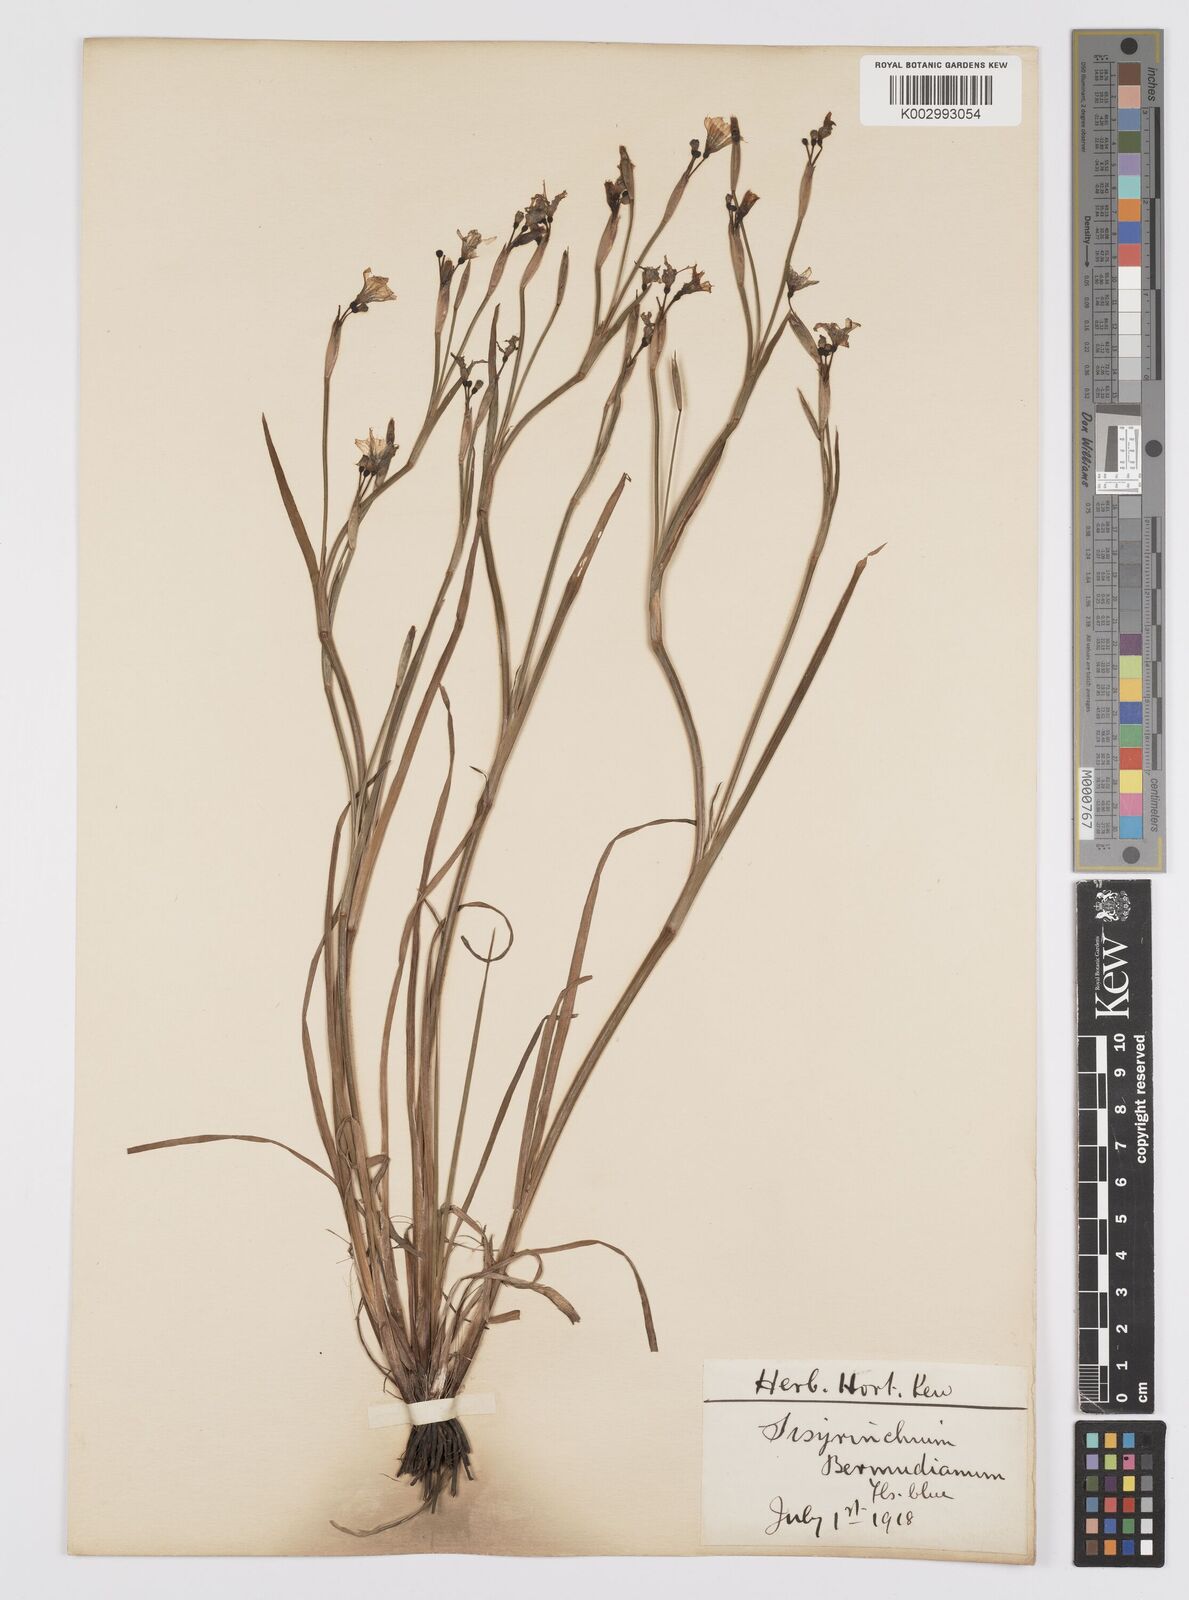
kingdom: Plantae
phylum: Tracheophyta
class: Liliopsida
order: Asparagales
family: Iridaceae
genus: Sisyrinchium
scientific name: Sisyrinchium bermudiana
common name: Blue-eyed-grass
